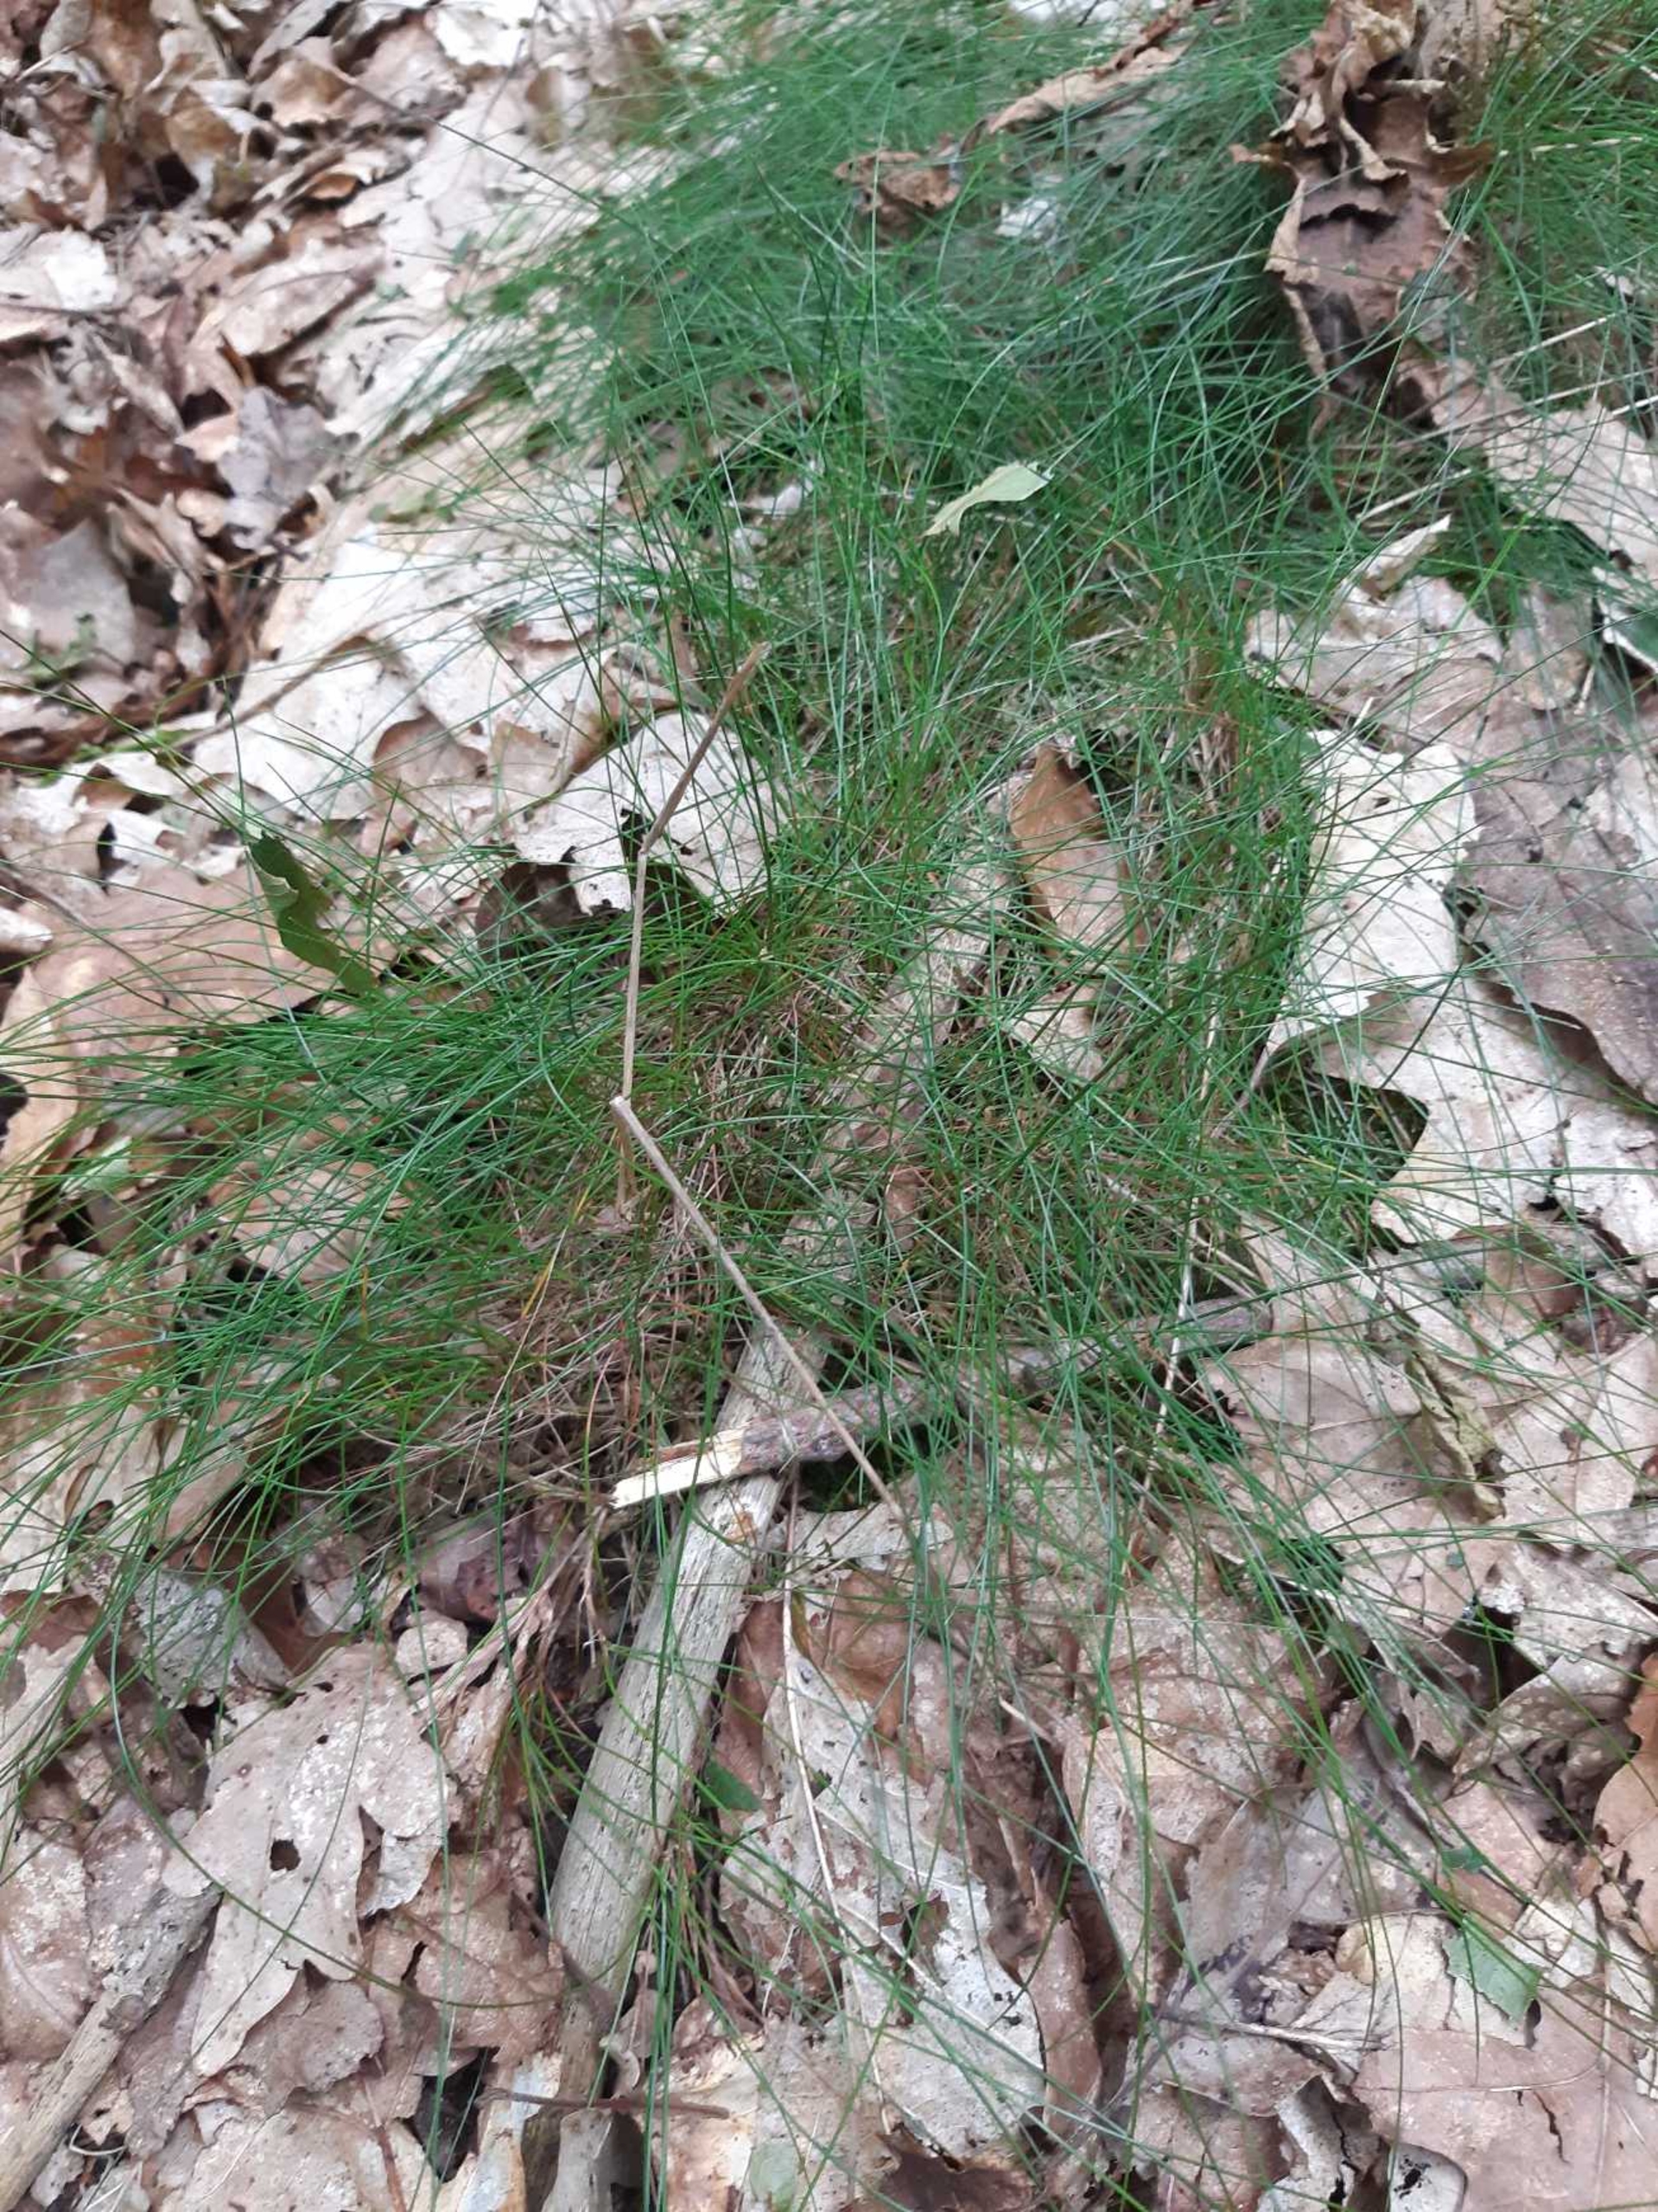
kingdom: Plantae
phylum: Tracheophyta
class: Liliopsida
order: Poales
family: Poaceae
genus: Avenella
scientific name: Avenella flexuosa
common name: Bølget bunke
